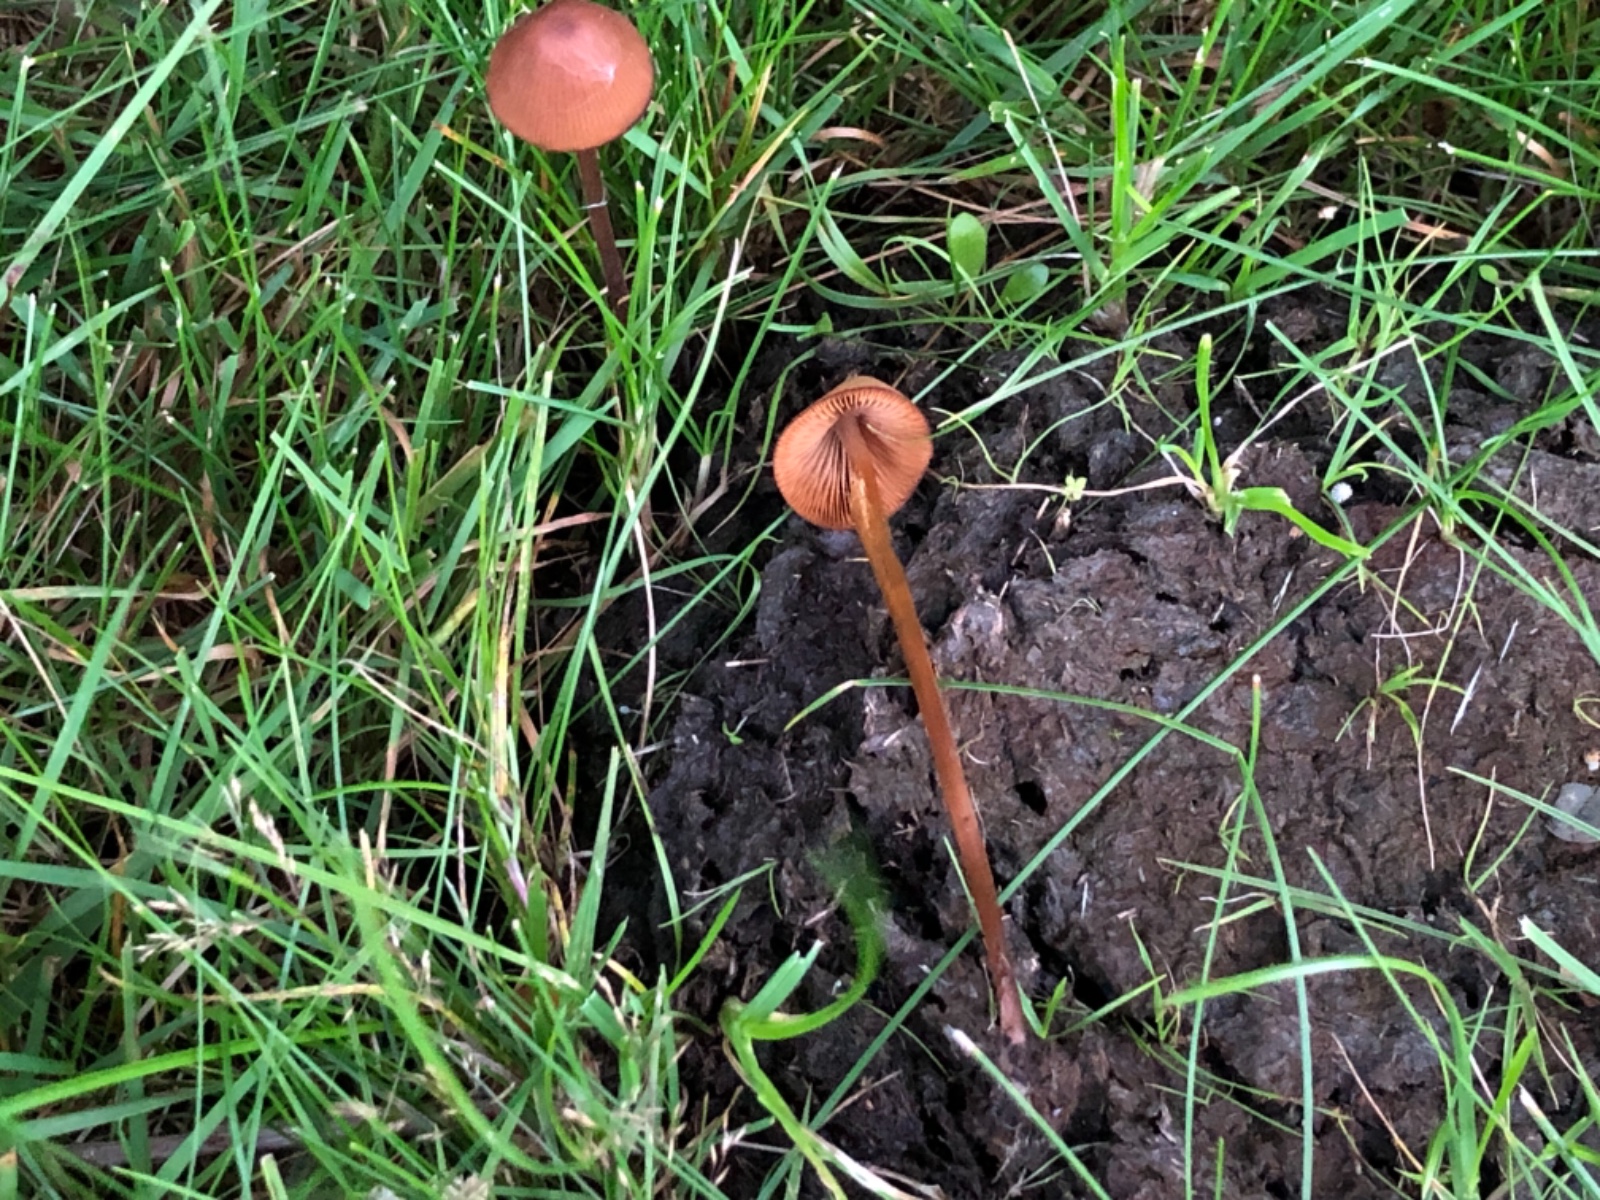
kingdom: Fungi
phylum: Basidiomycota
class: Agaricomycetes
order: Agaricales
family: Bolbitiaceae
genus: Conocybe
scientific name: Conocybe
